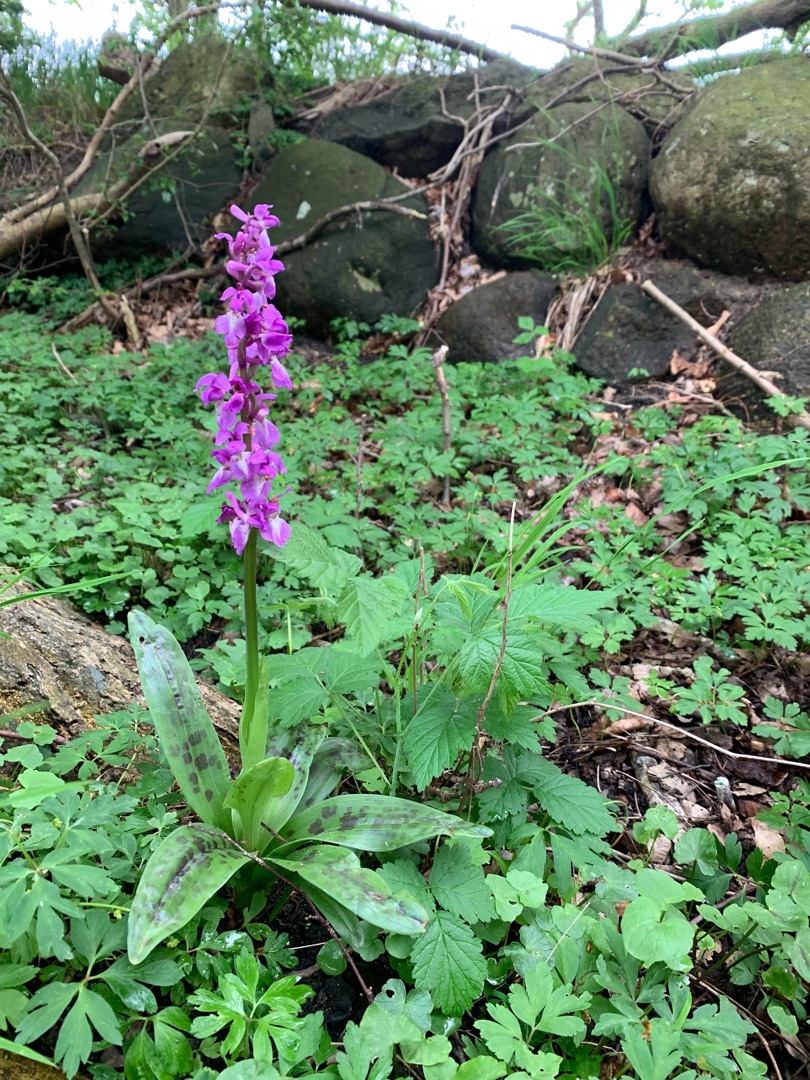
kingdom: Plantae
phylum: Tracheophyta
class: Liliopsida
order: Asparagales
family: Orchidaceae
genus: Orchis
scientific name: Orchis mascula
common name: Tyndakset gøgeurt
